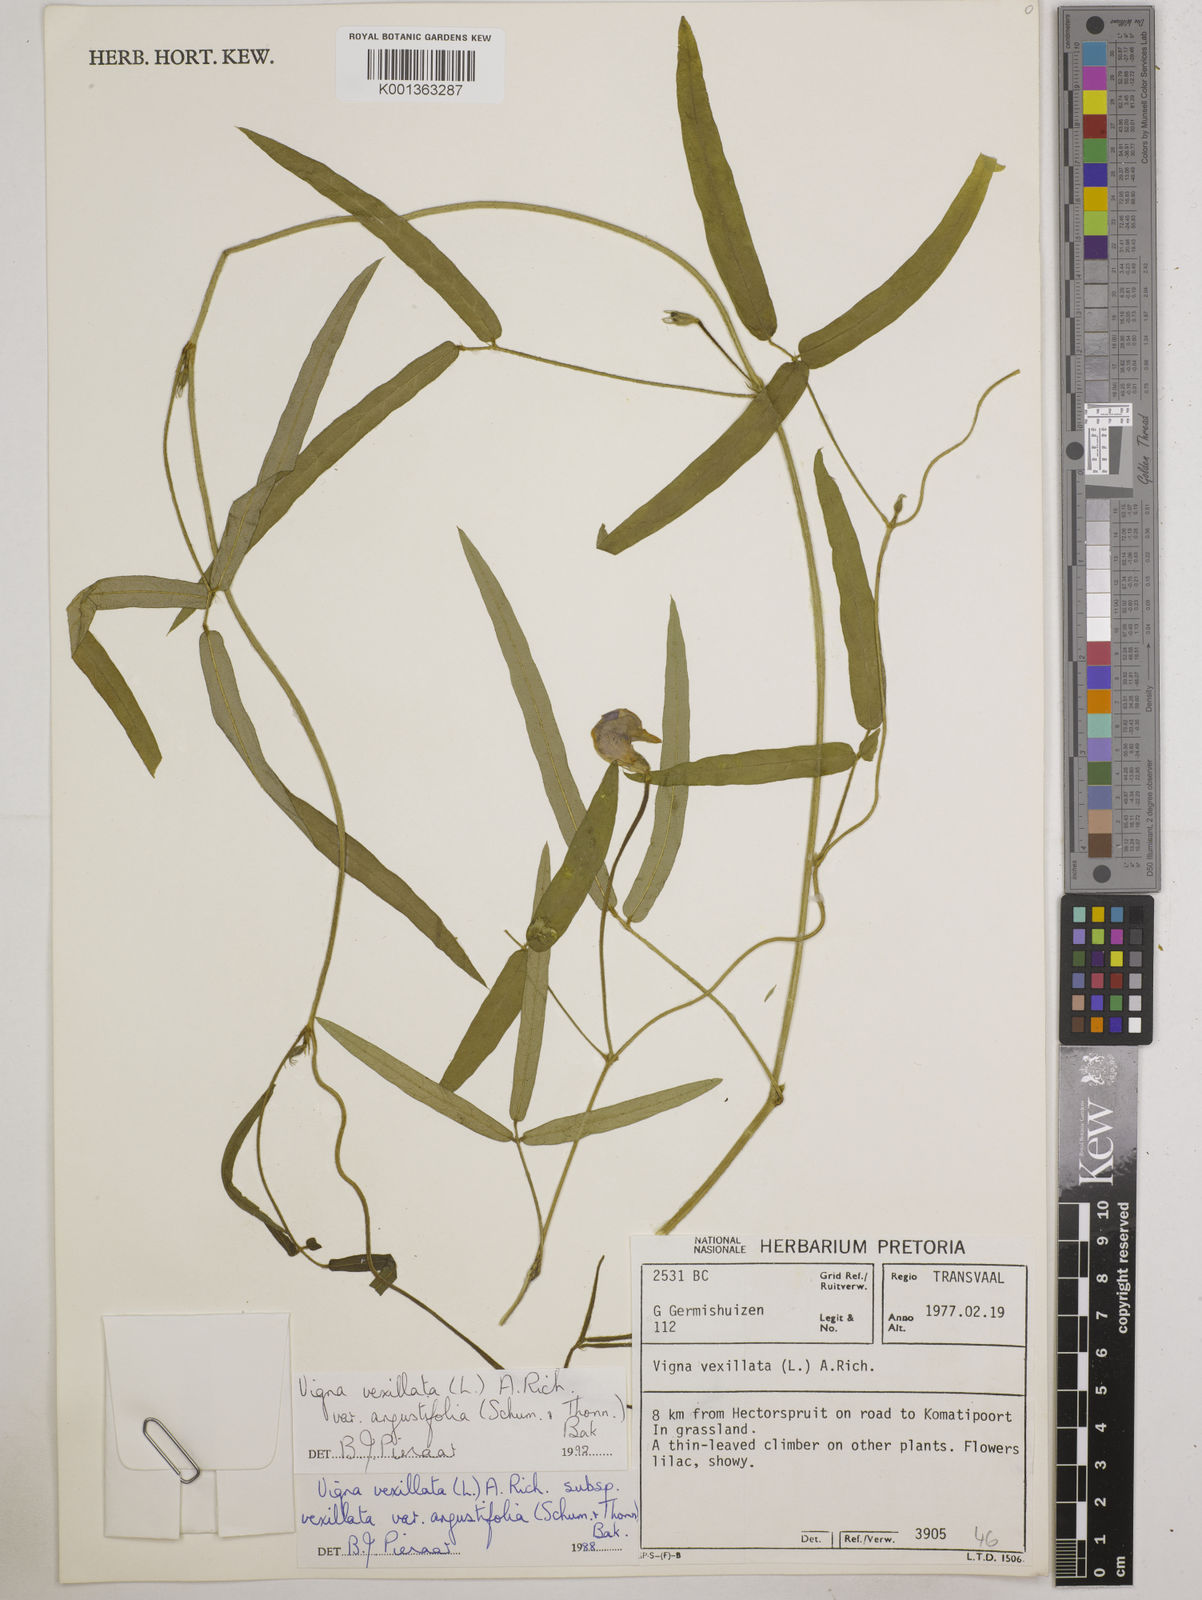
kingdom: Plantae
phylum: Tracheophyta
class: Magnoliopsida
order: Fabales
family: Fabaceae
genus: Vigna
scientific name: Vigna vexillata
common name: Zombi pea
